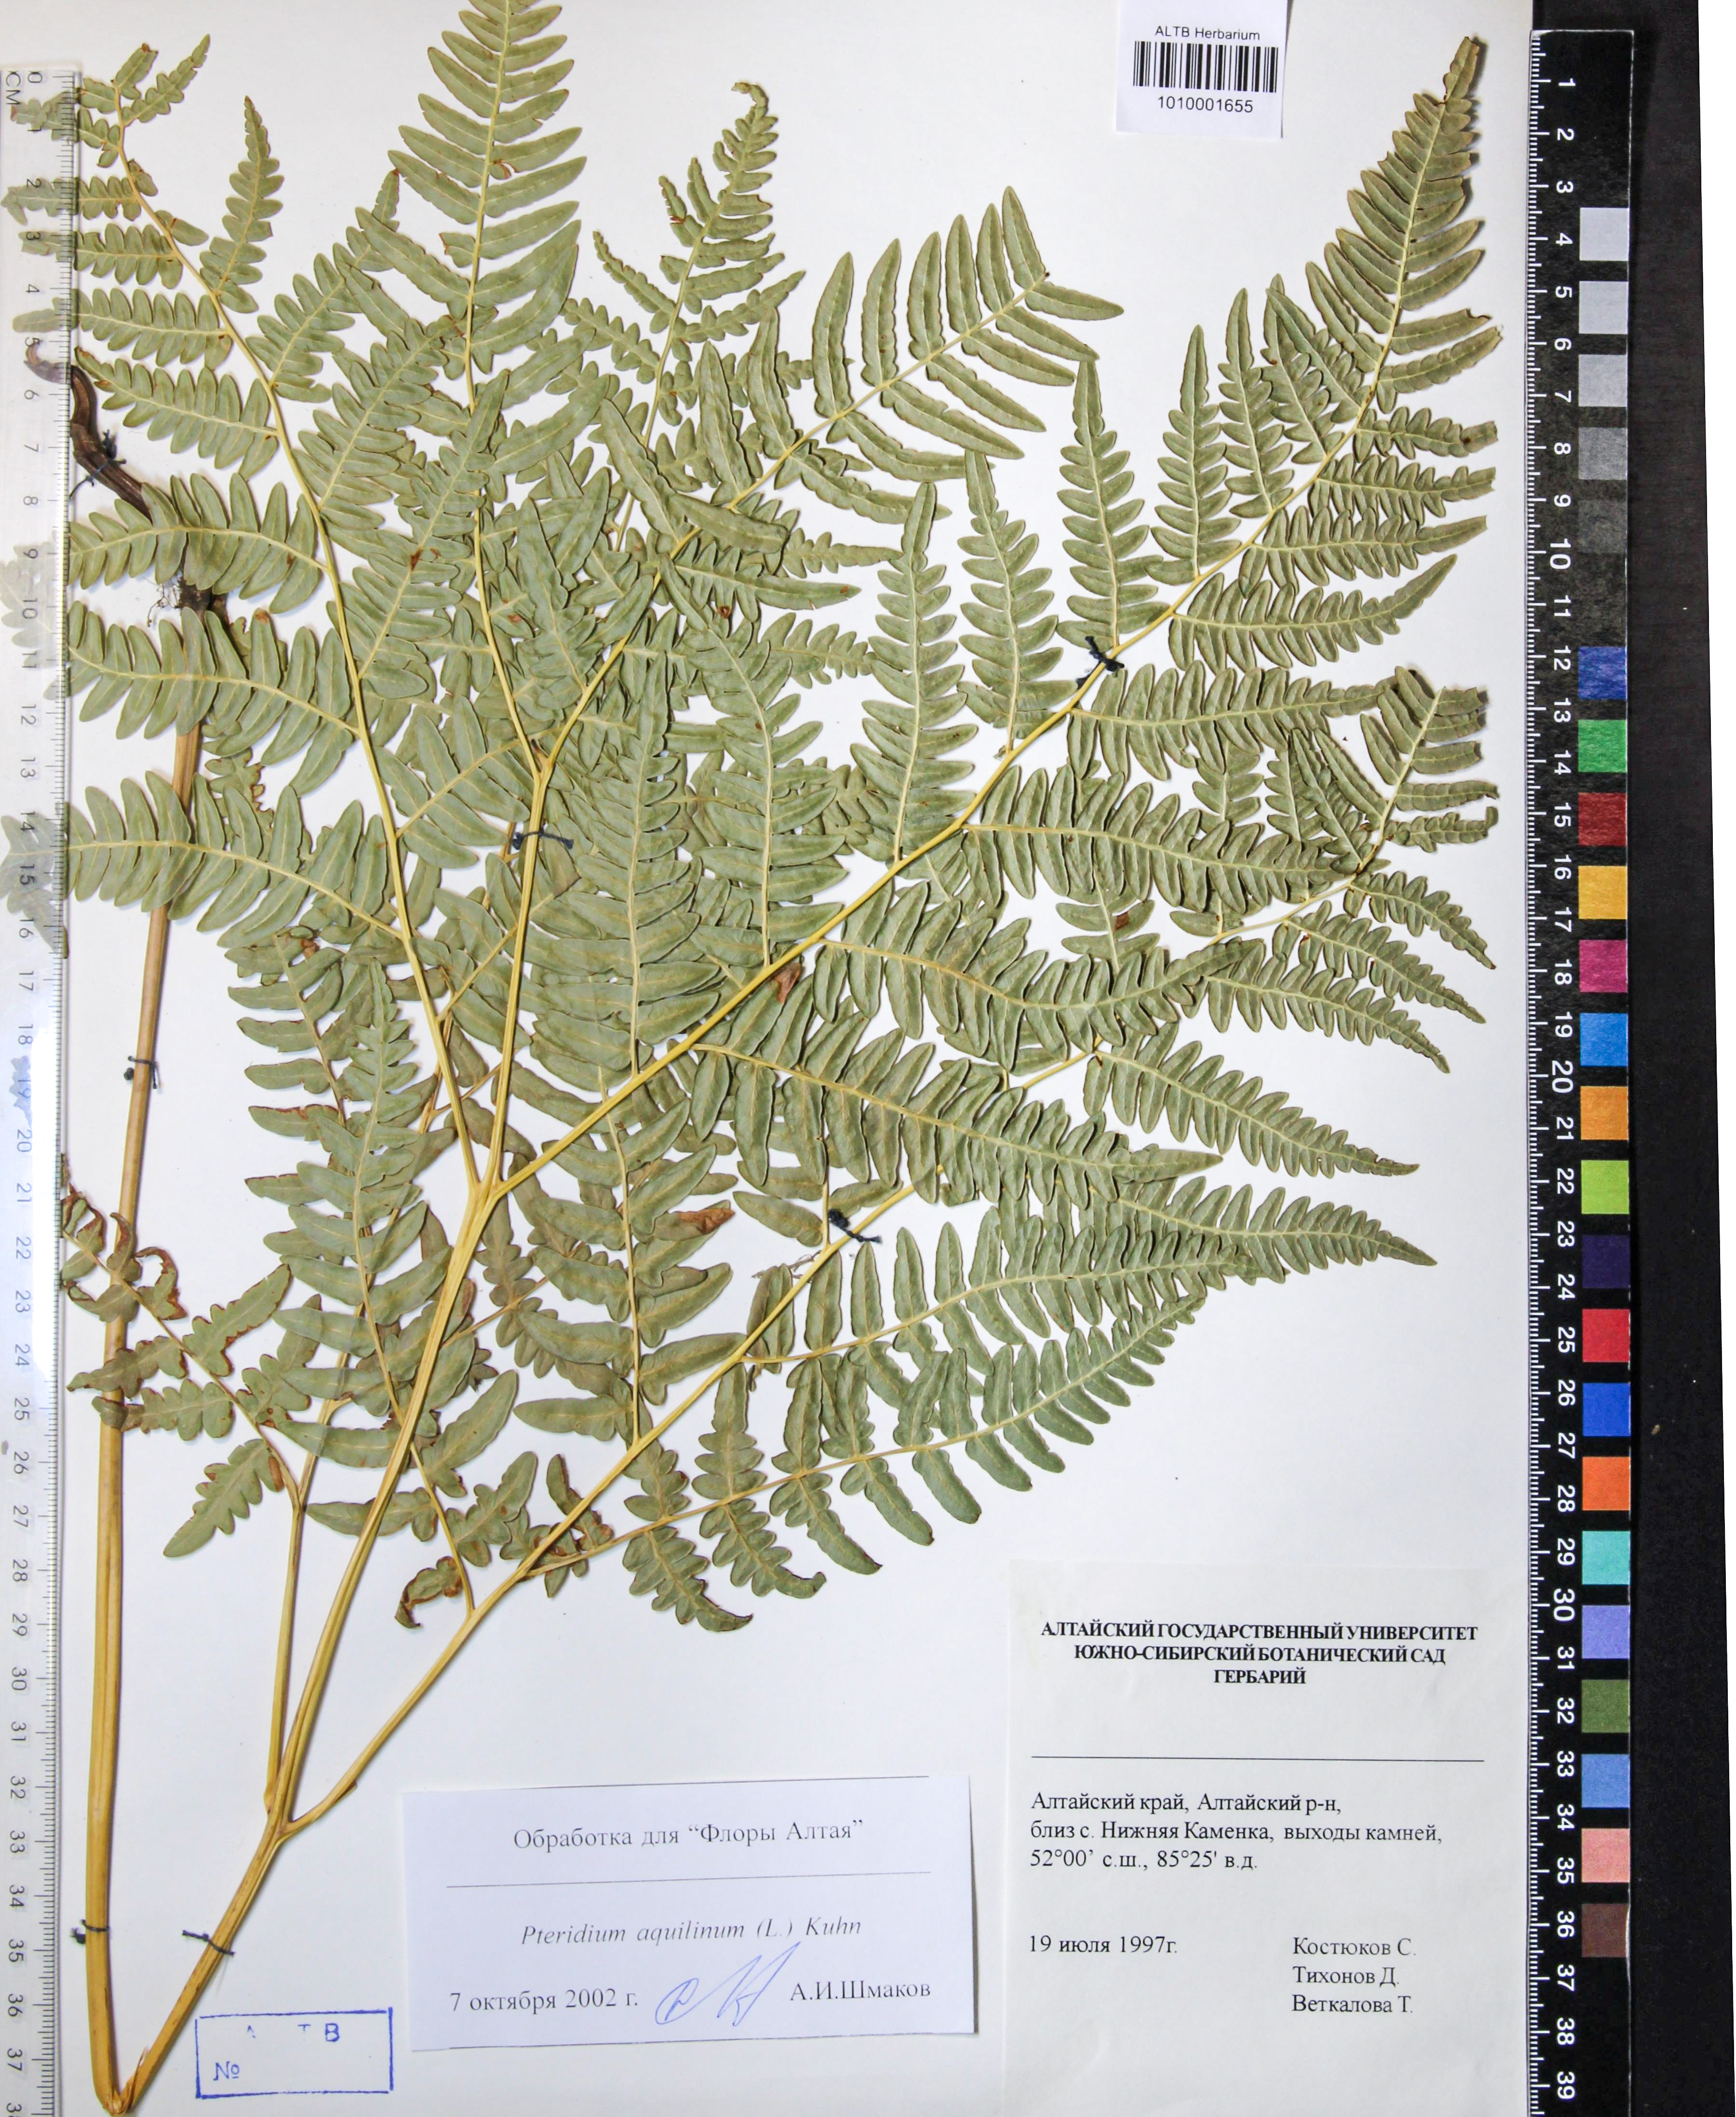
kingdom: Plantae
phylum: Tracheophyta
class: Polypodiopsida
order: Polypodiales
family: Dennstaedtiaceae
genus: Pteridium
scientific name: Pteridium aquilinum
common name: Bracken
